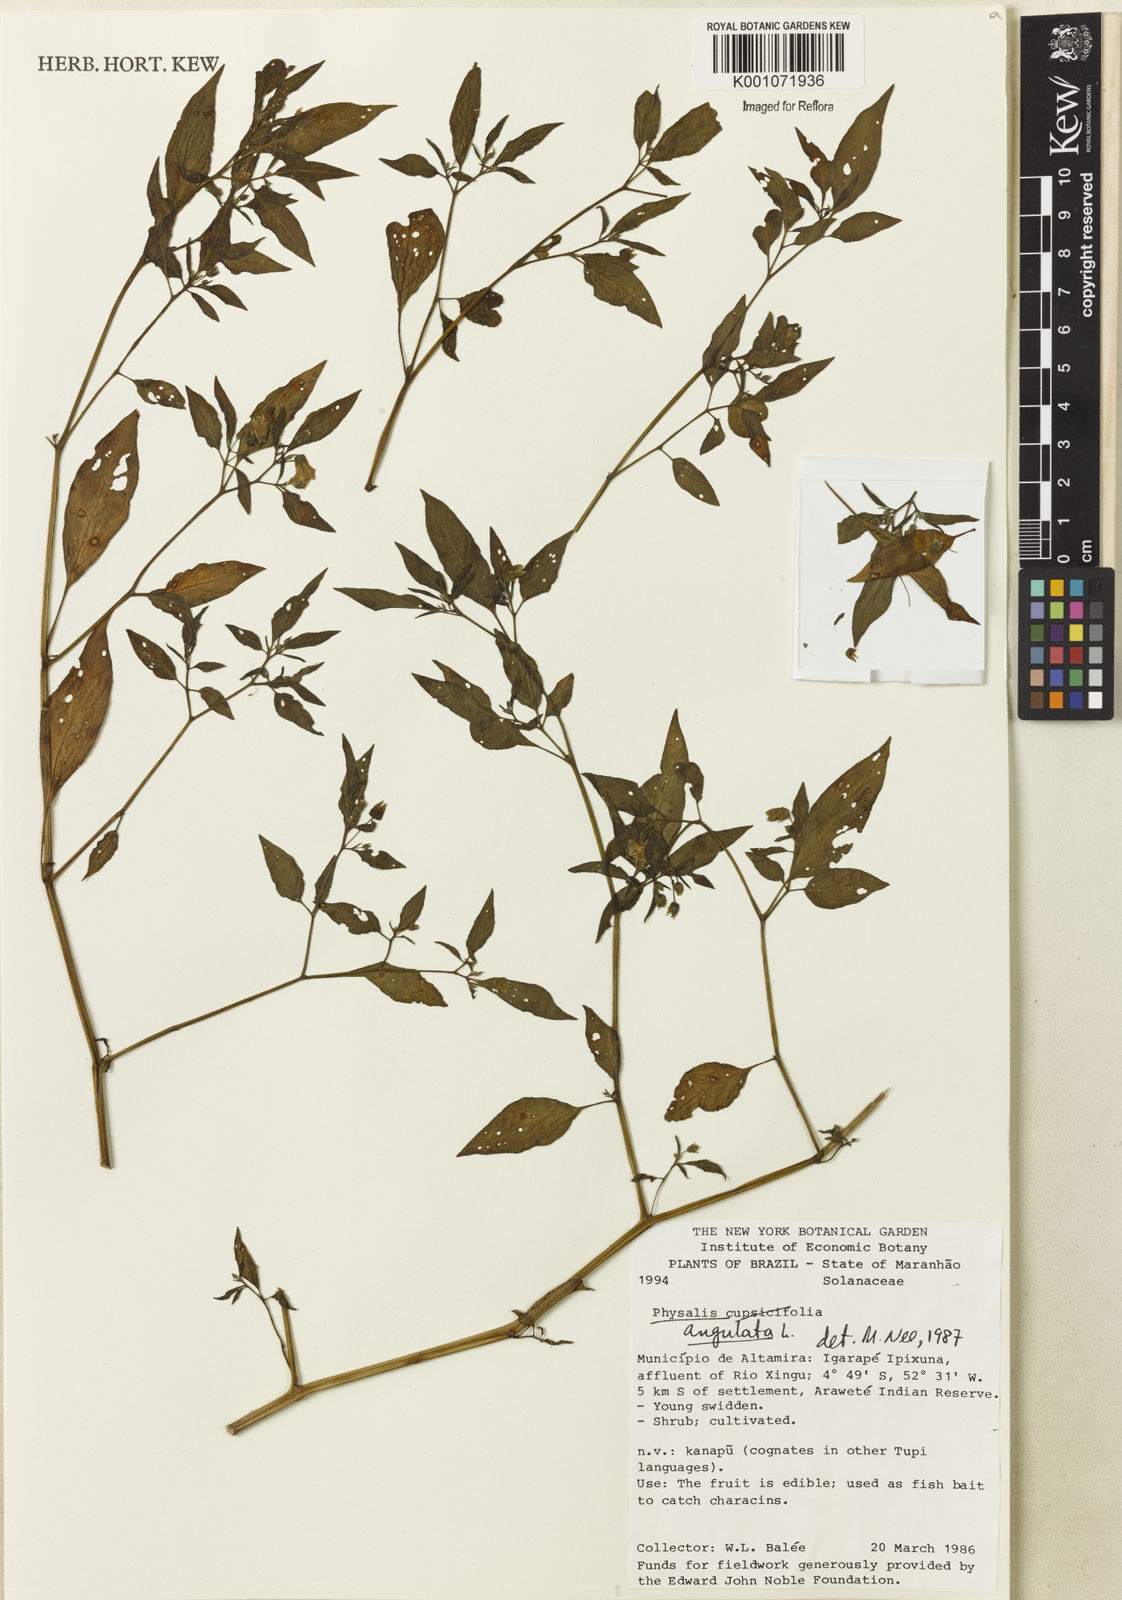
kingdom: Plantae
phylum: Tracheophyta
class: Magnoliopsida
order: Solanales
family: Solanaceae
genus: Physalis
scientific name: Physalis angulata
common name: Angular winter-cherry
